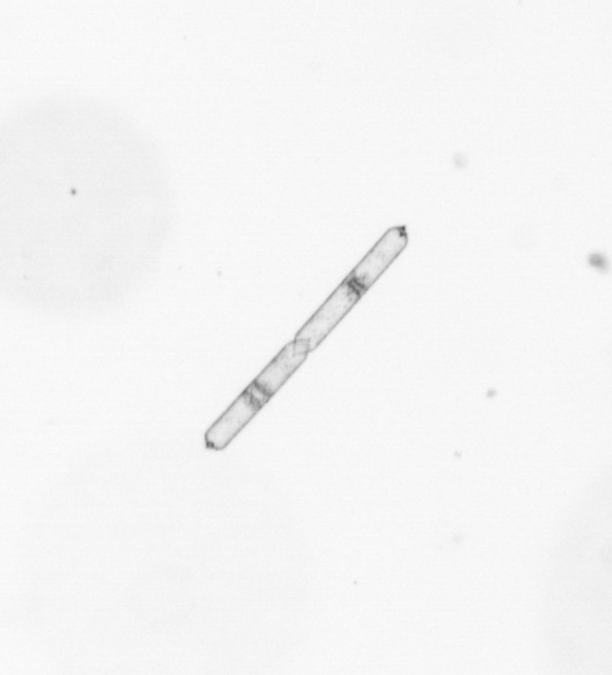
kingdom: Chromista
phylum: Ochrophyta
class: Bacillariophyceae
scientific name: Bacillariophyceae
